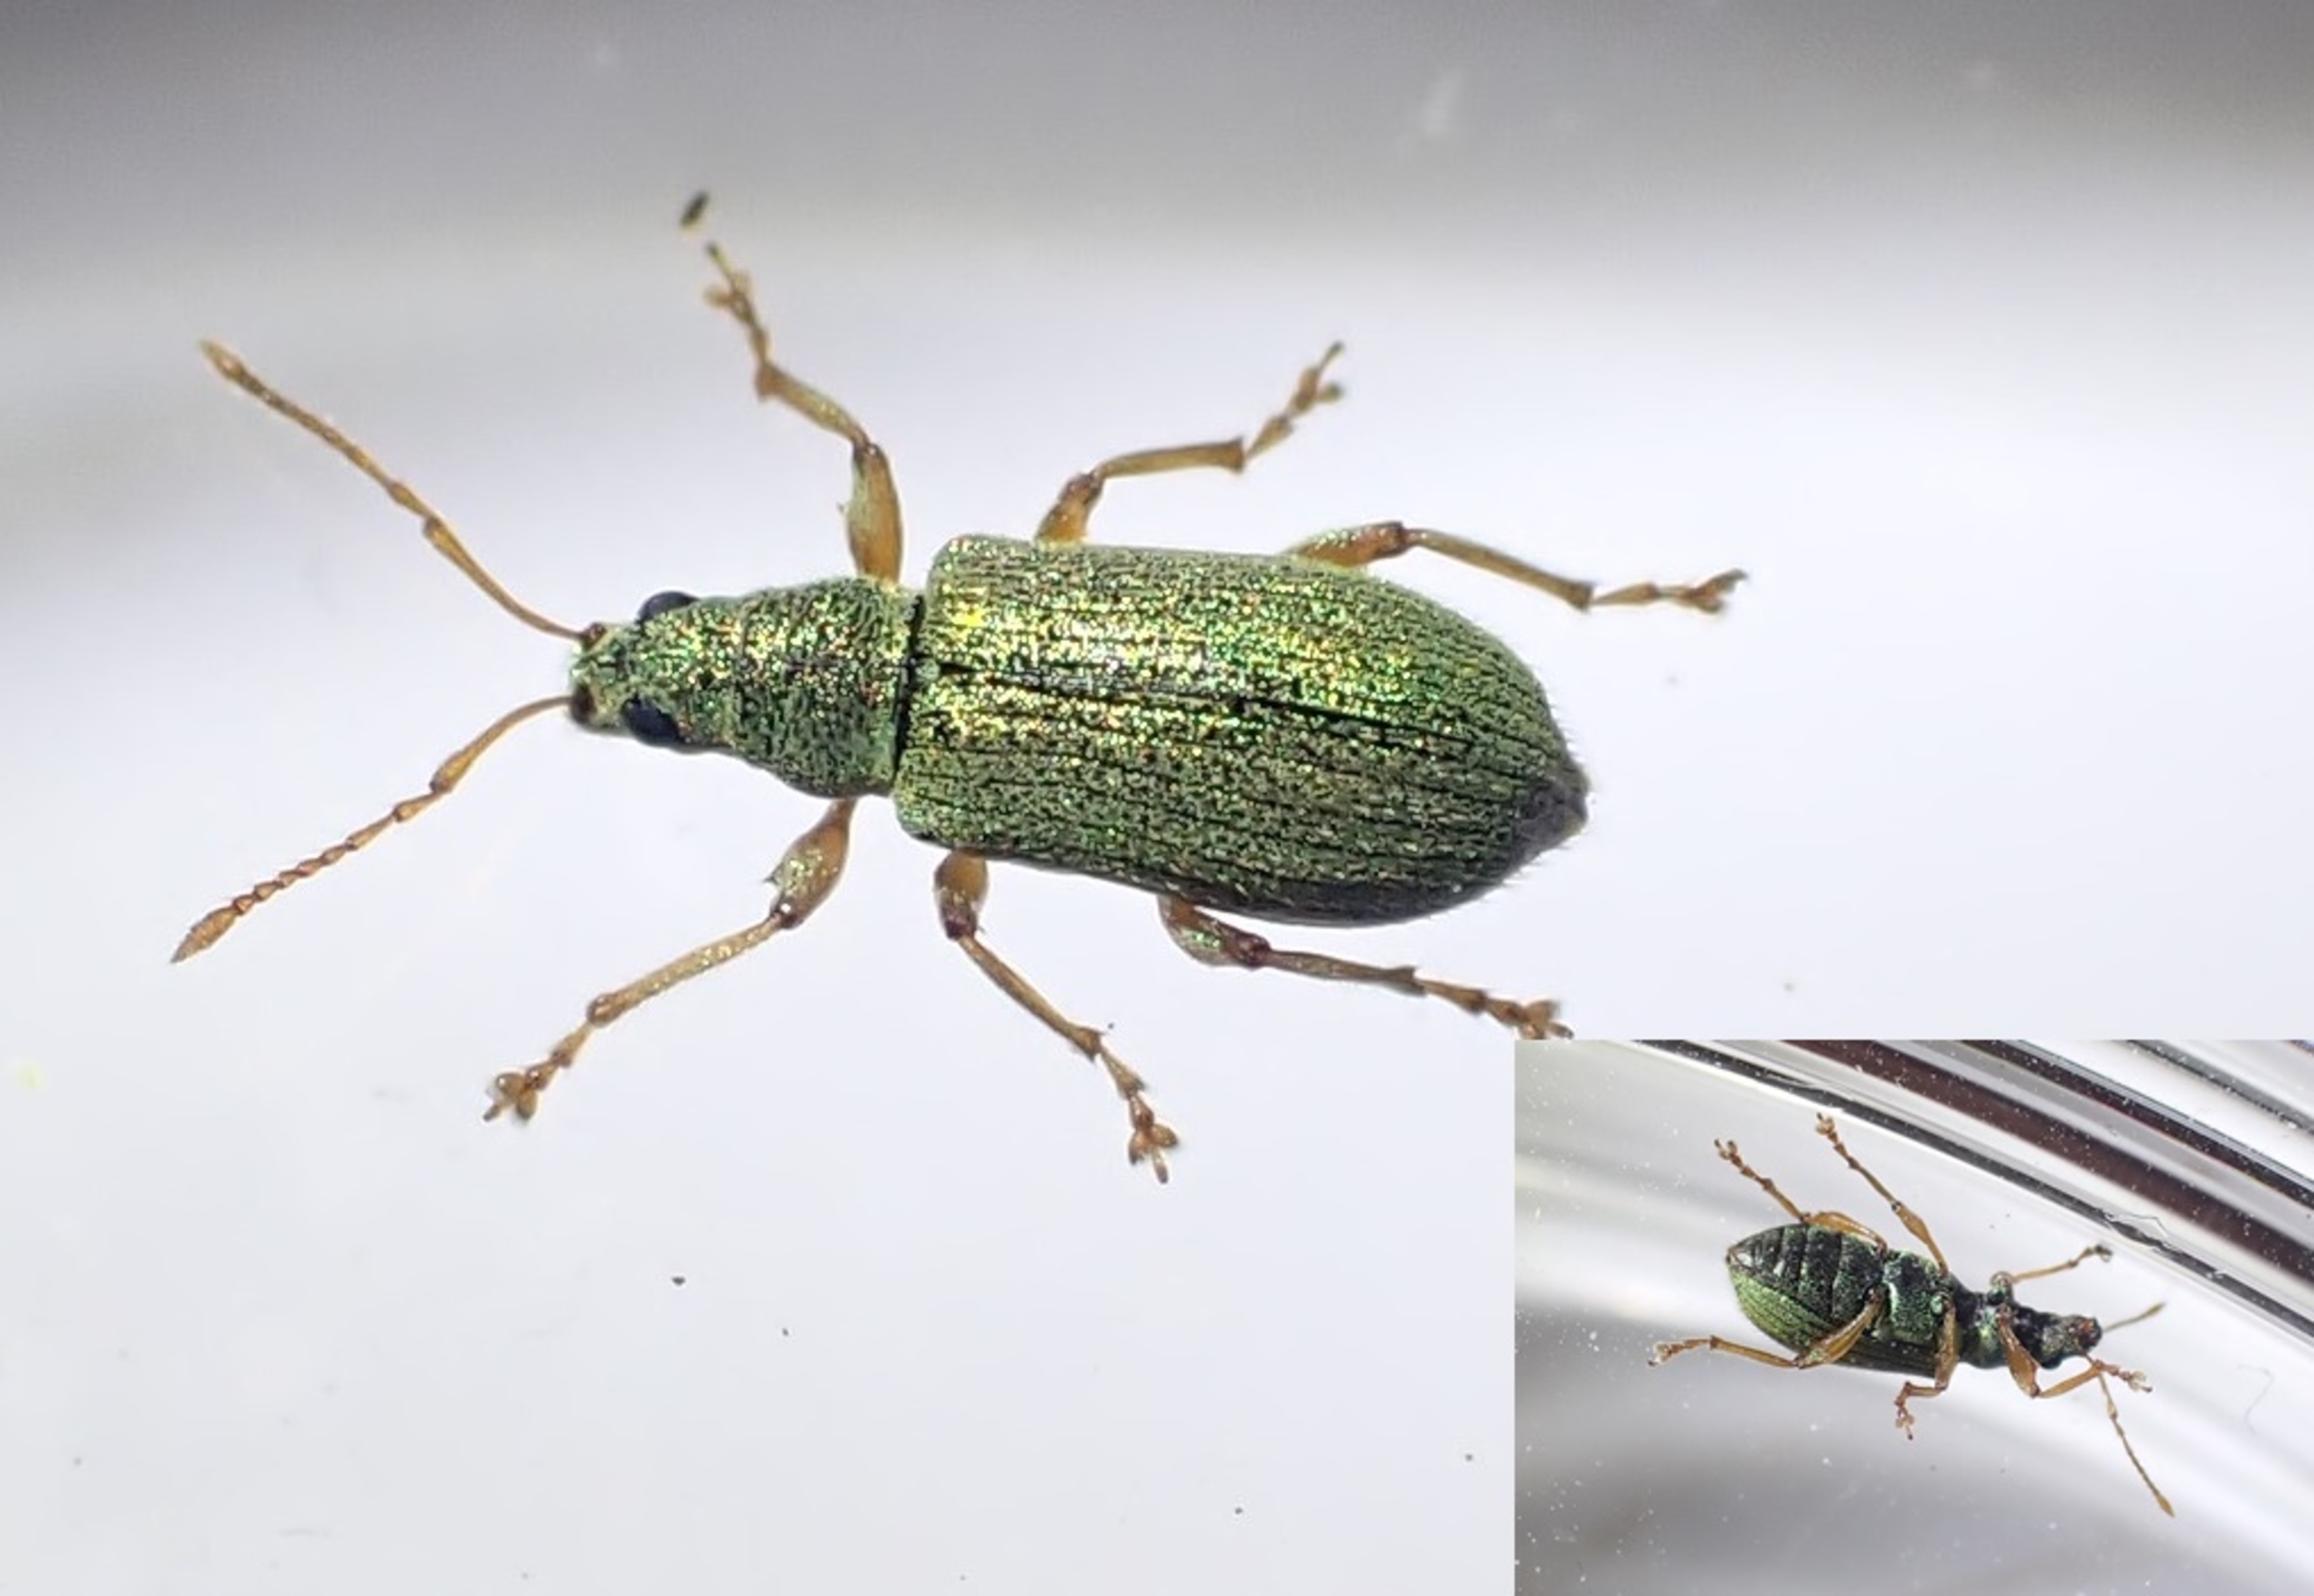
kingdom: Animalia
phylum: Arthropoda
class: Insecta
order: Coleoptera
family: Curculionidae
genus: Phyllobius
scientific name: Phyllobius argentatus
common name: Bøgeløvsnudebille
